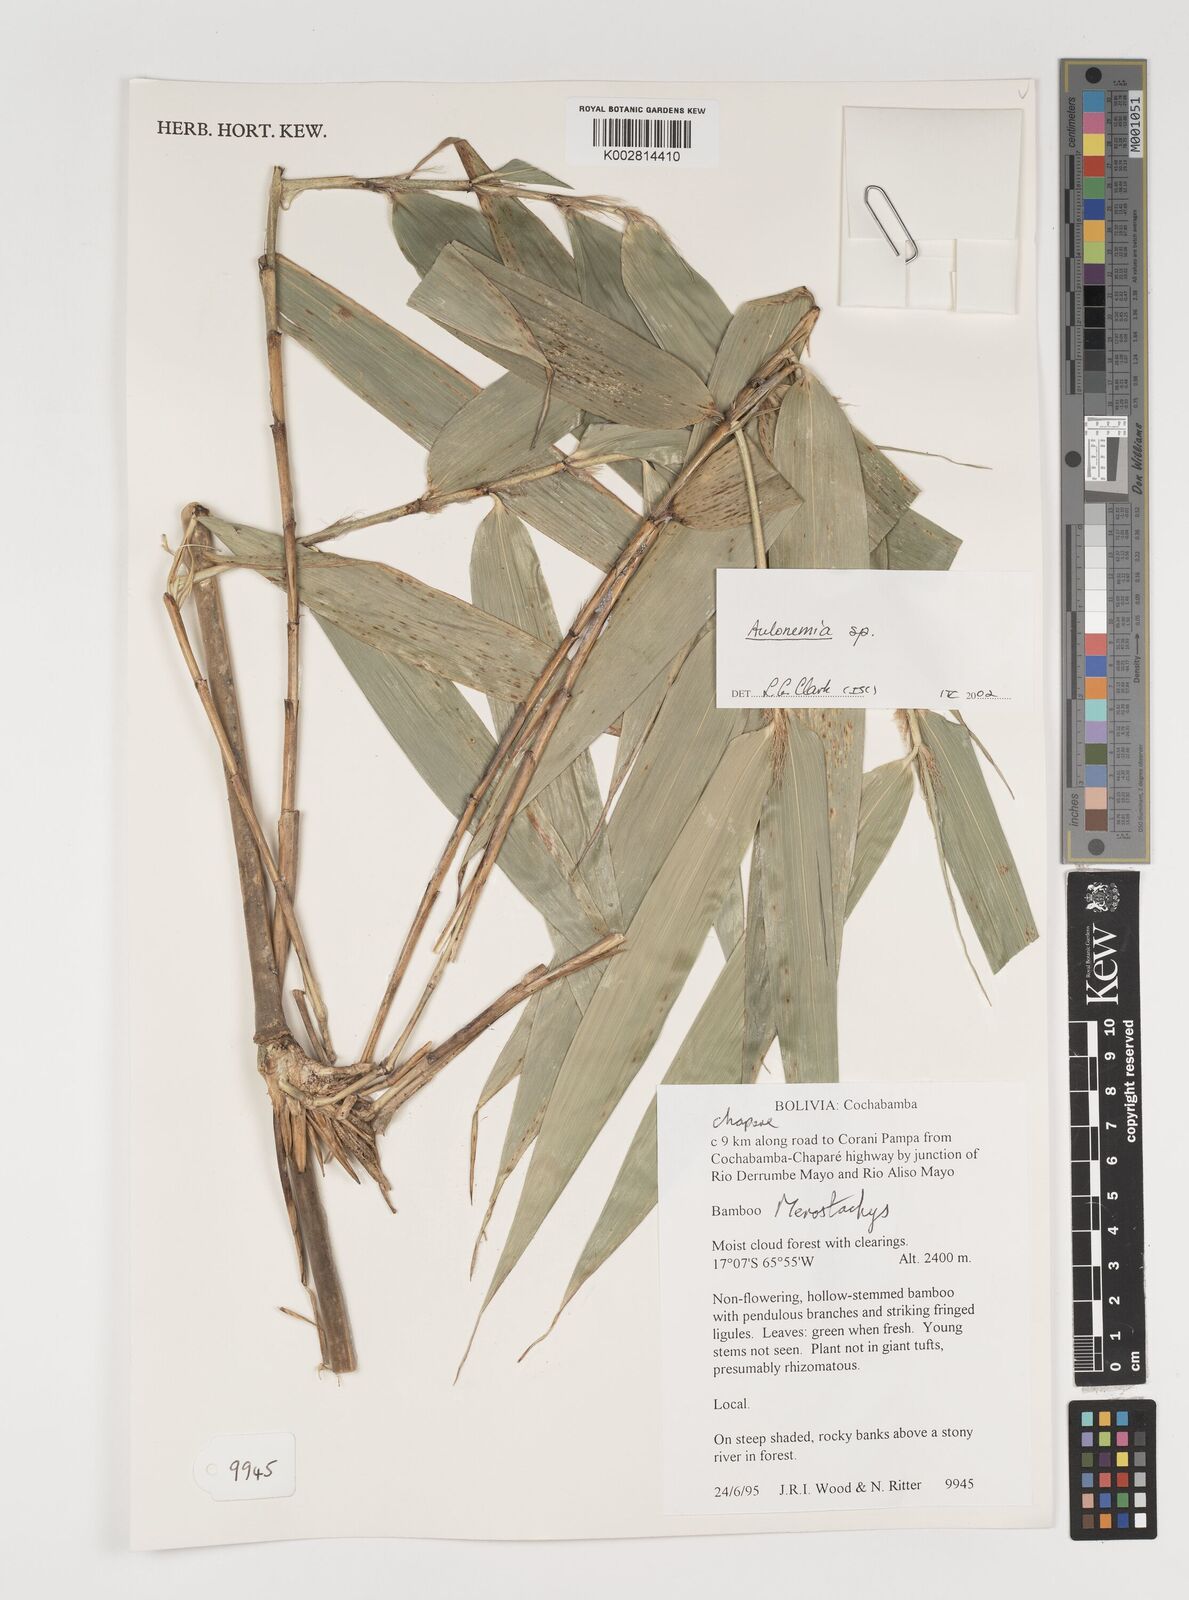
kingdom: Plantae
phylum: Tracheophyta
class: Liliopsida
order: Poales
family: Poaceae
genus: Aulonemia
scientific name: Aulonemia
